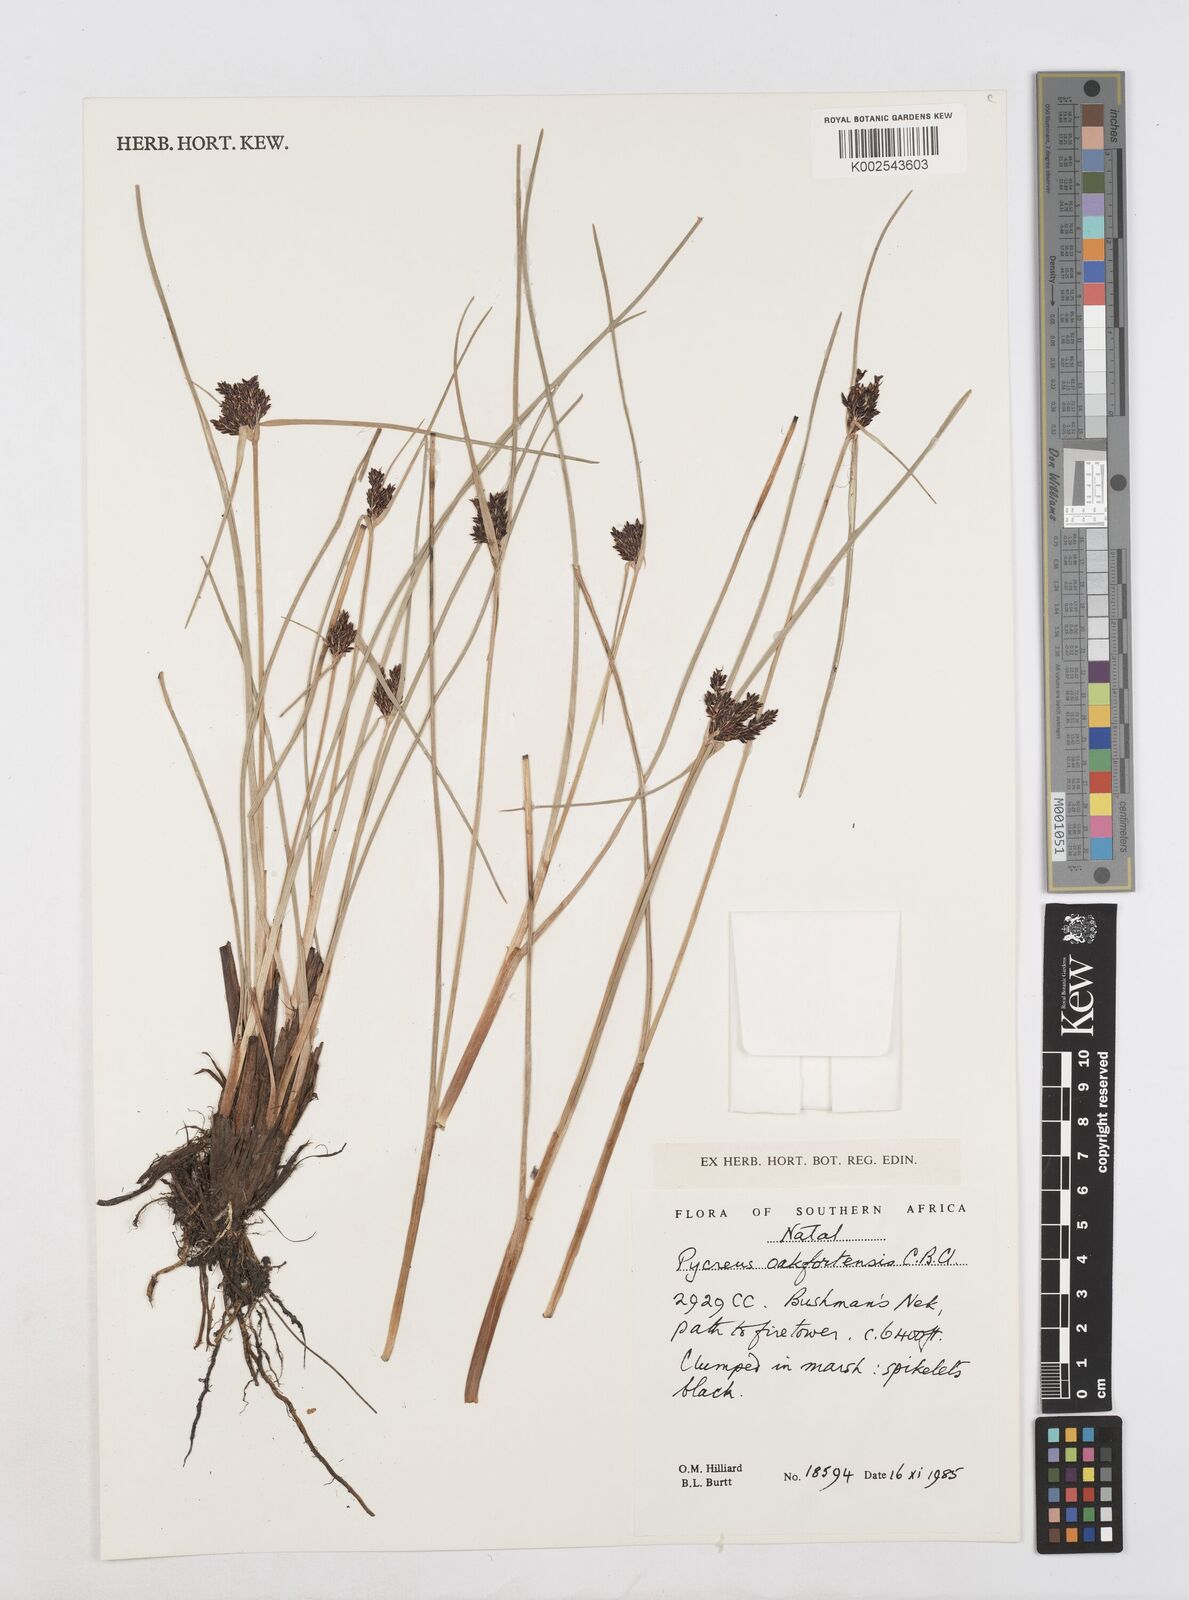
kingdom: Plantae
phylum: Tracheophyta
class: Liliopsida
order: Poales
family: Cyperaceae
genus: Cyperus
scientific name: Cyperus oakfortensis
